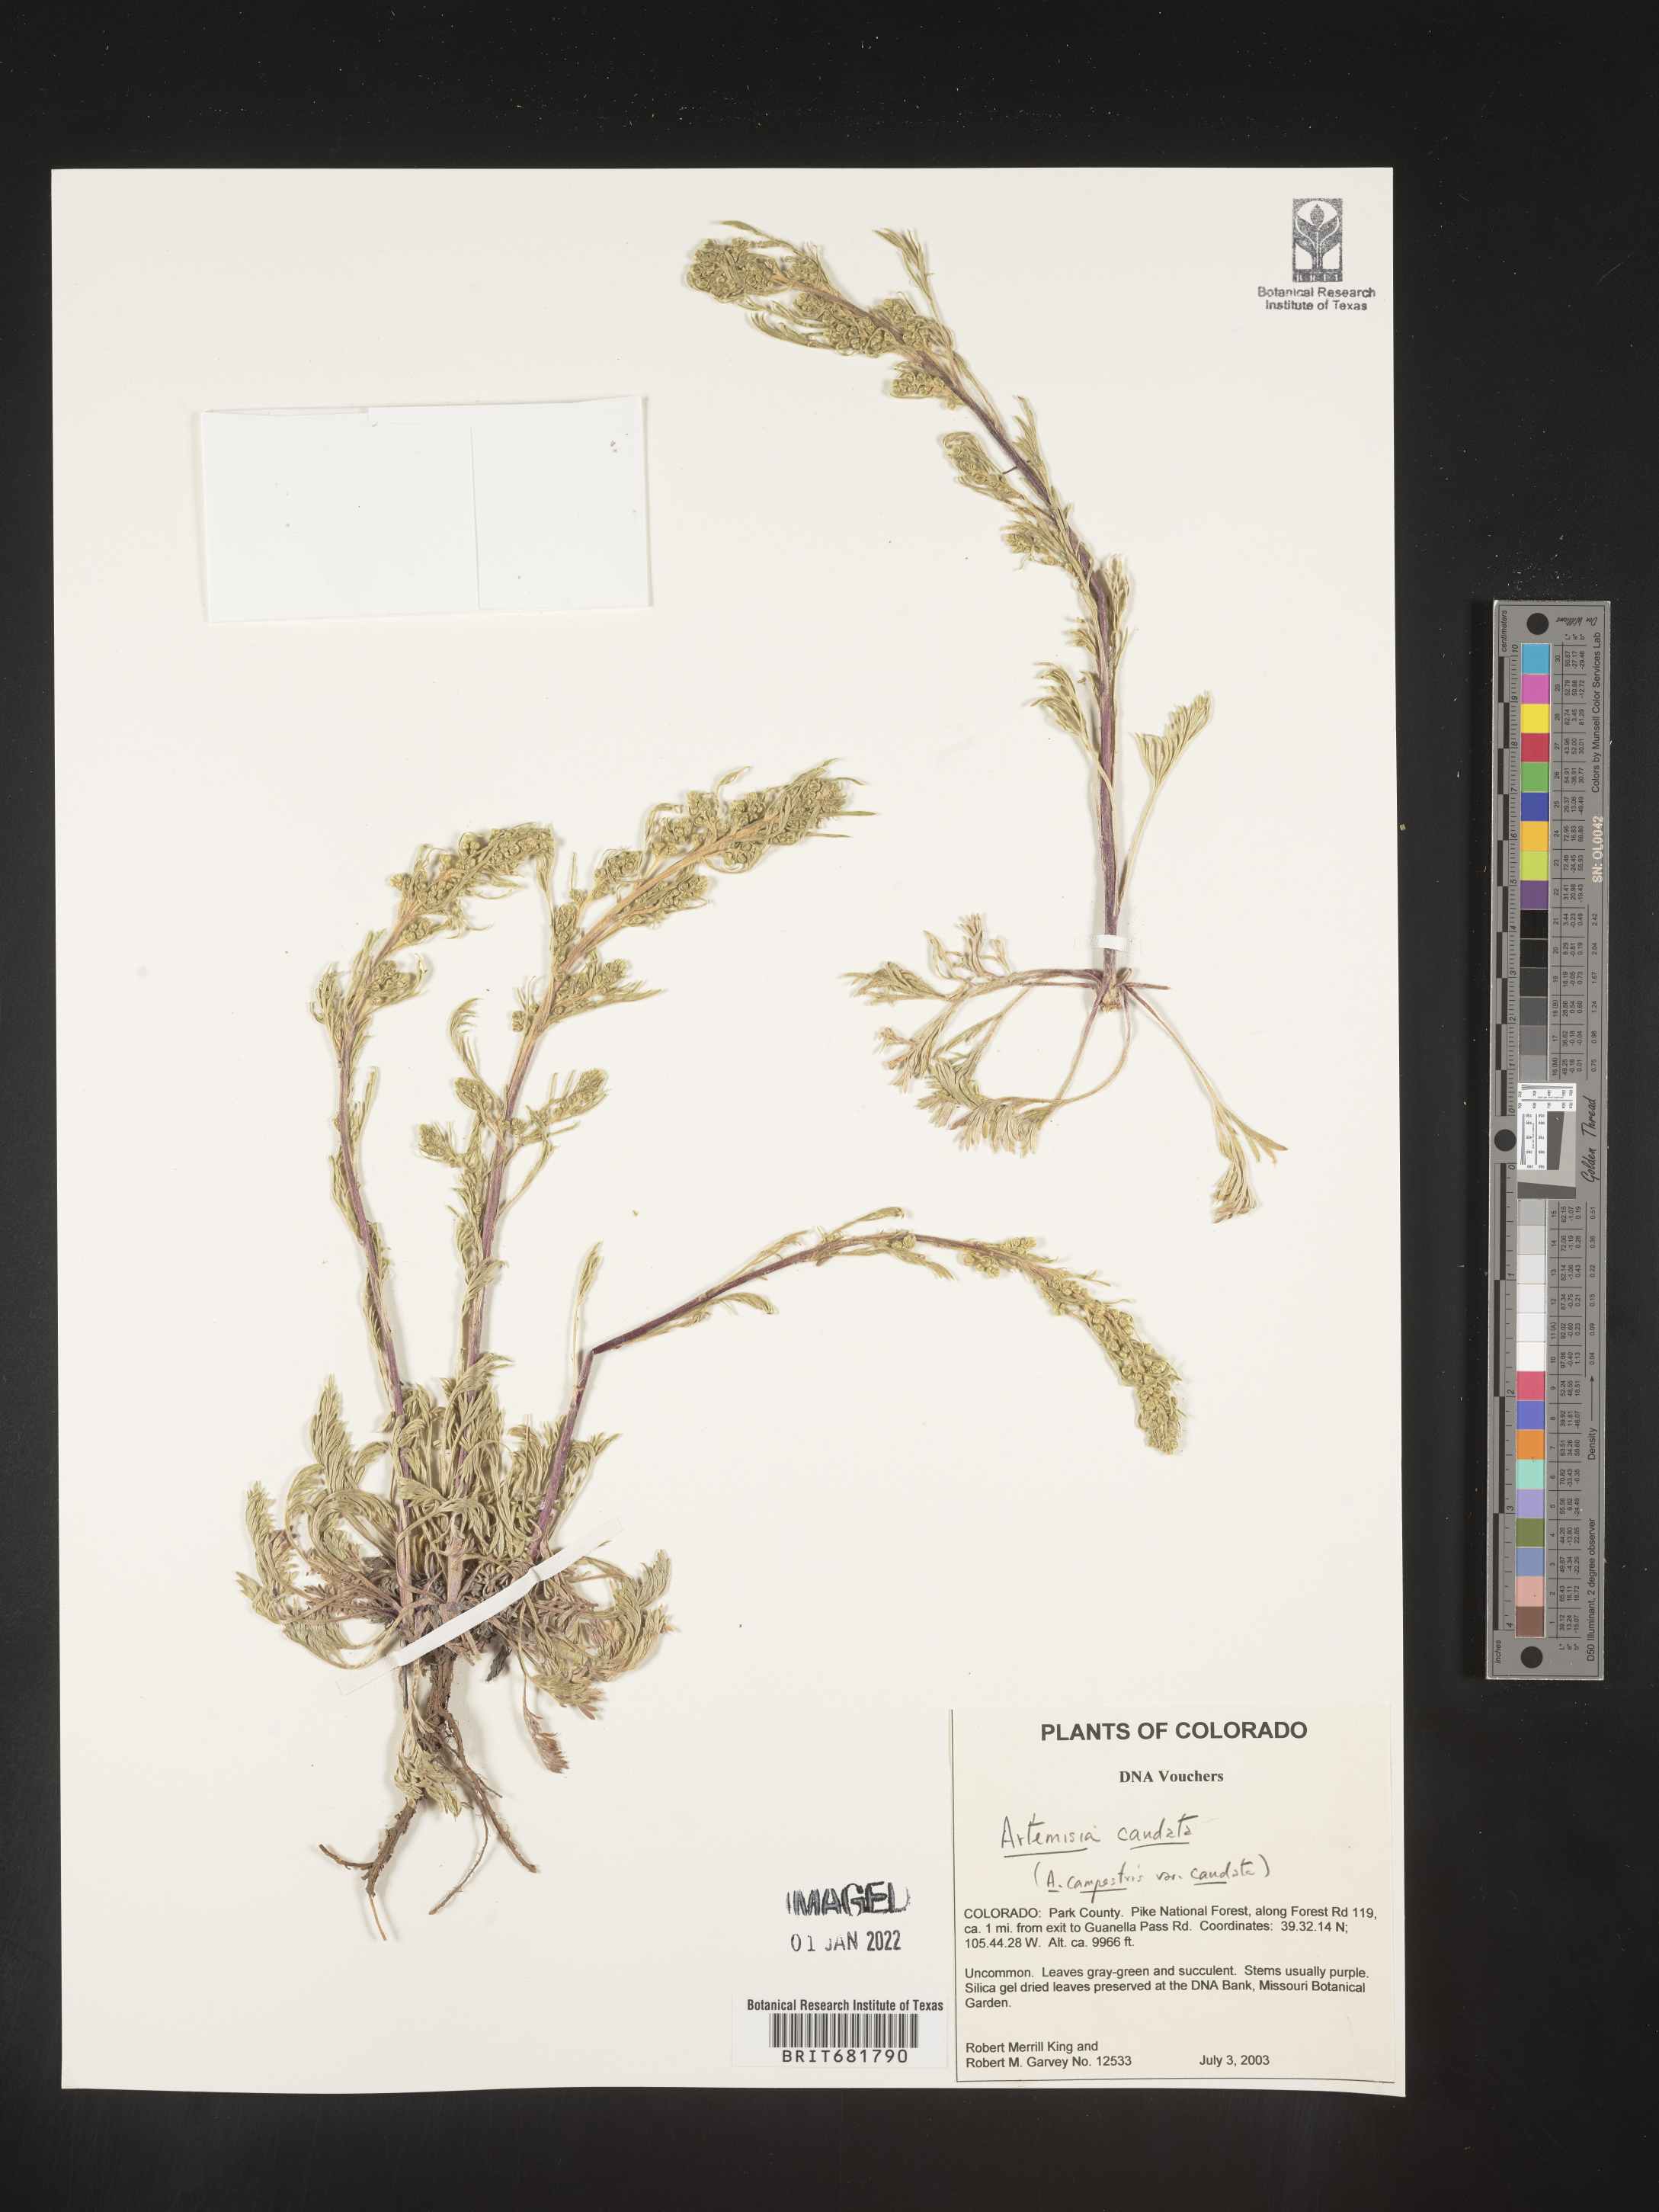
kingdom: Plantae
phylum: Tracheophyta
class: Magnoliopsida
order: Asterales
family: Asteraceae
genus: Artemisia
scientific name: Artemisia campestris
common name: Field wormwood
